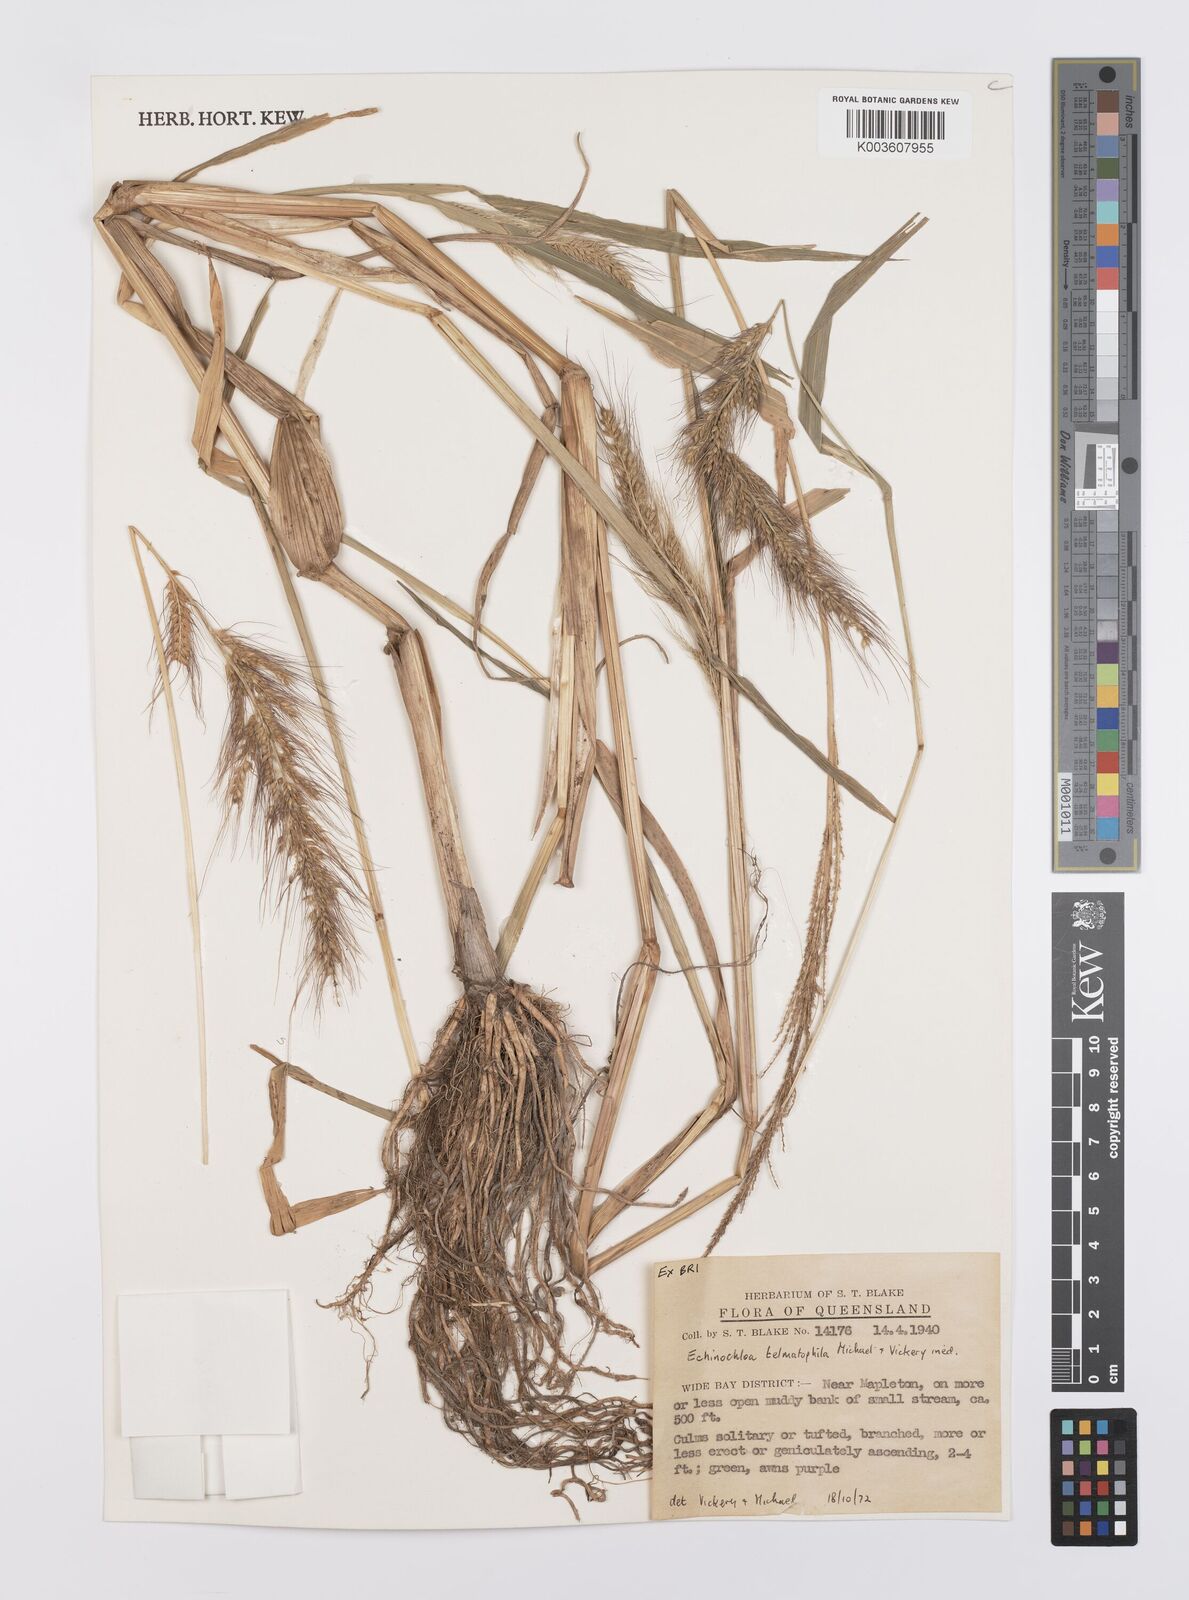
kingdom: Plantae
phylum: Tracheophyta
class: Liliopsida
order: Poales
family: Poaceae
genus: Echinochloa
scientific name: Echinochloa crus-galli
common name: Cockspur
